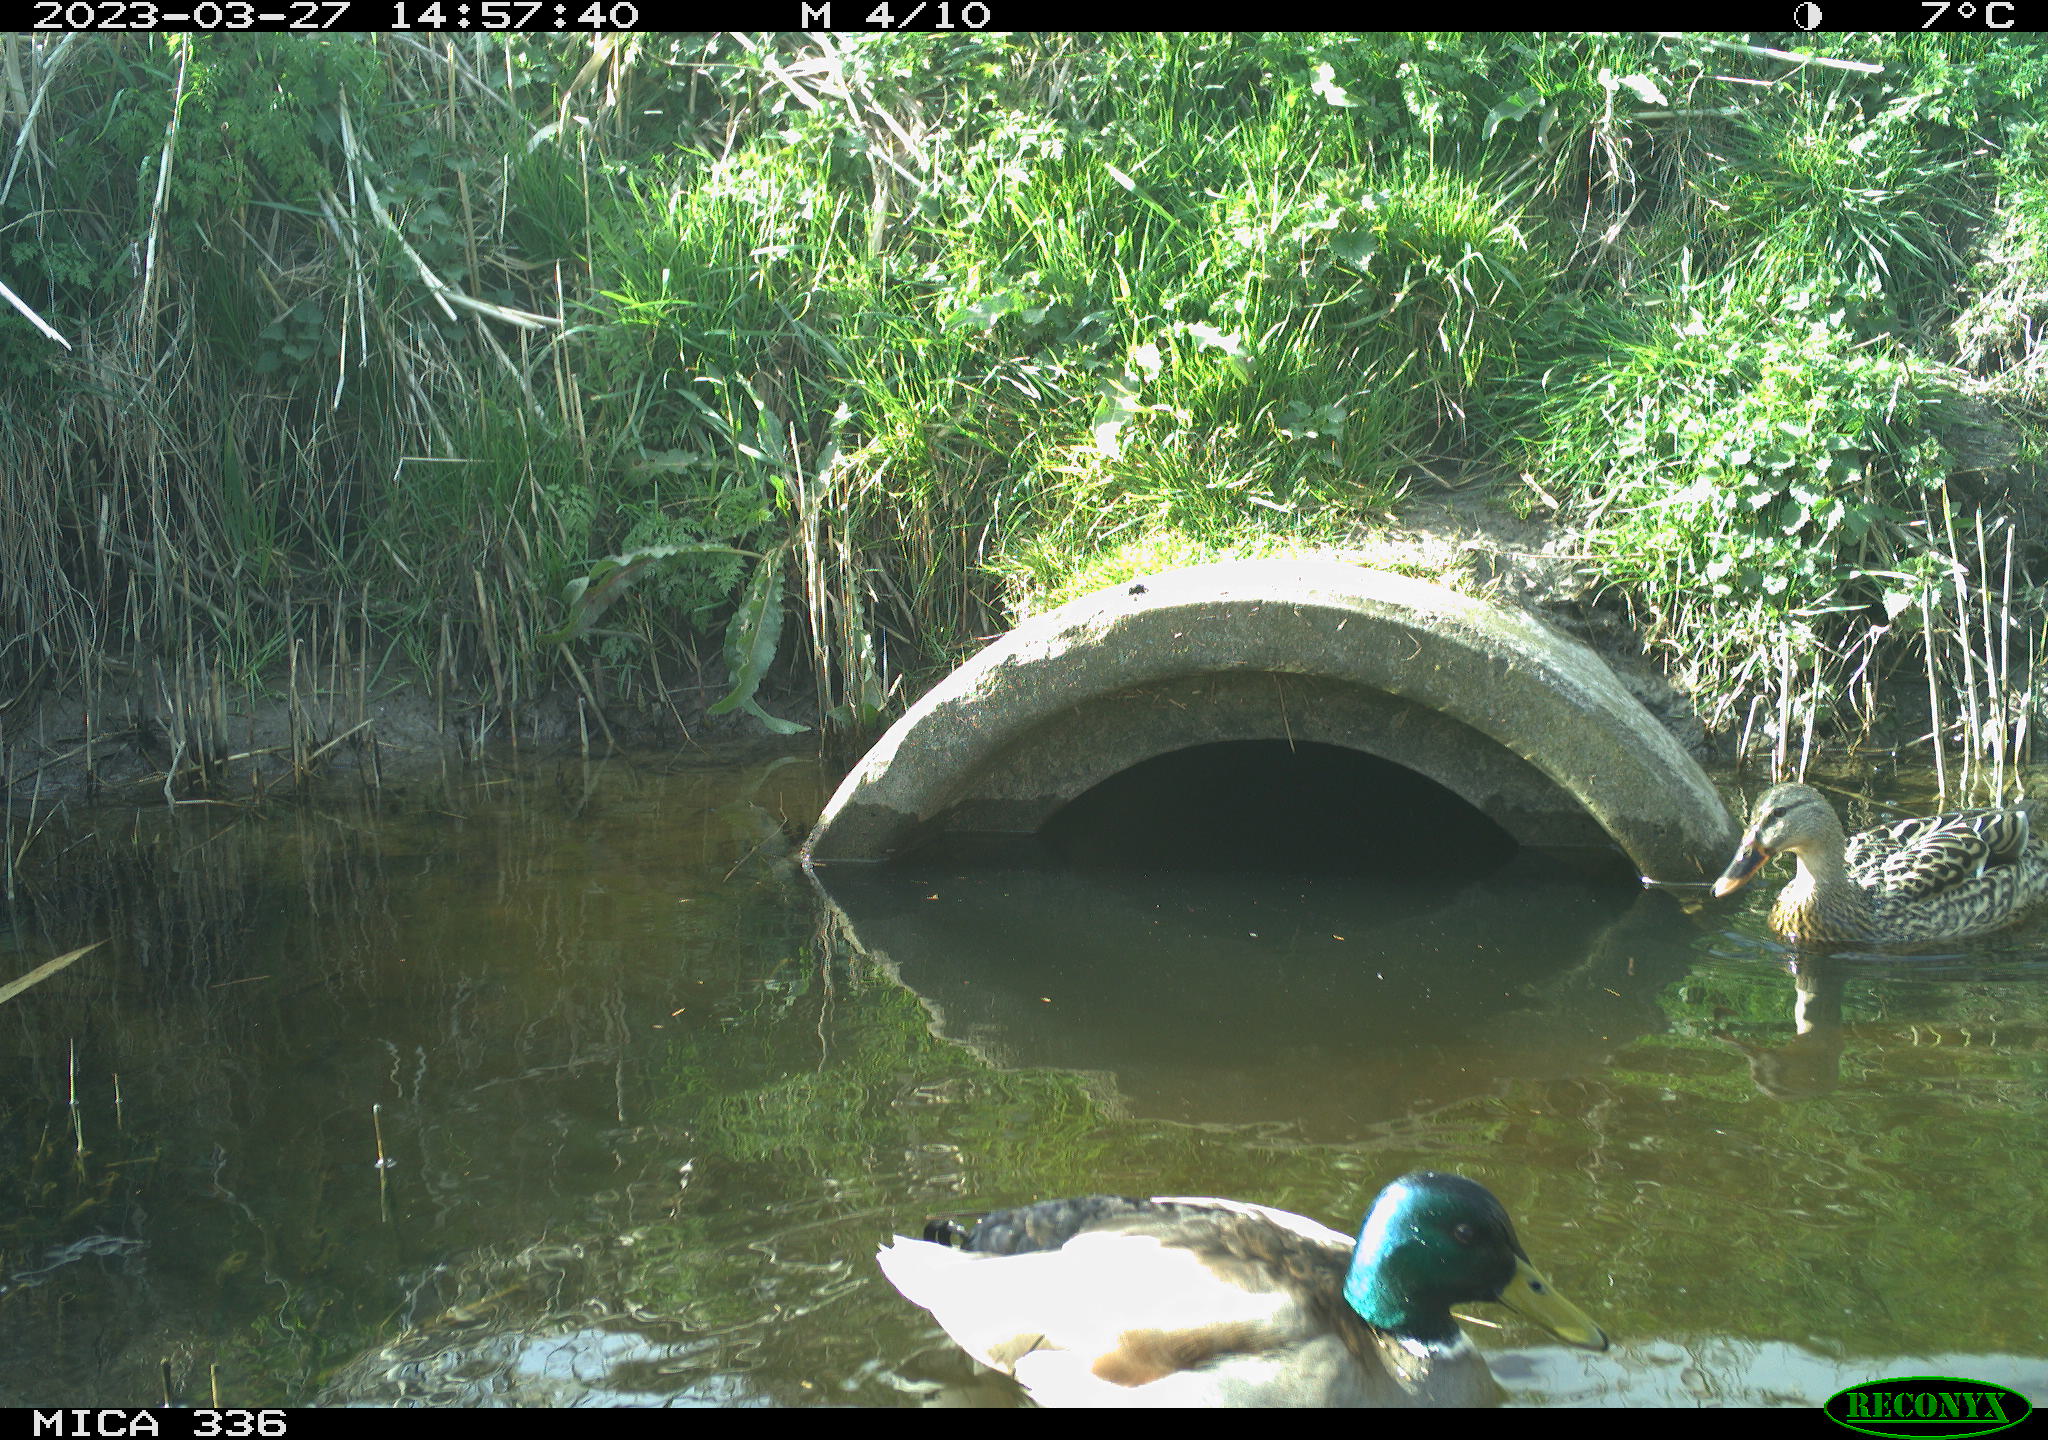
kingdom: Animalia
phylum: Chordata
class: Aves
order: Anseriformes
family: Anatidae
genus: Anas
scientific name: Anas
